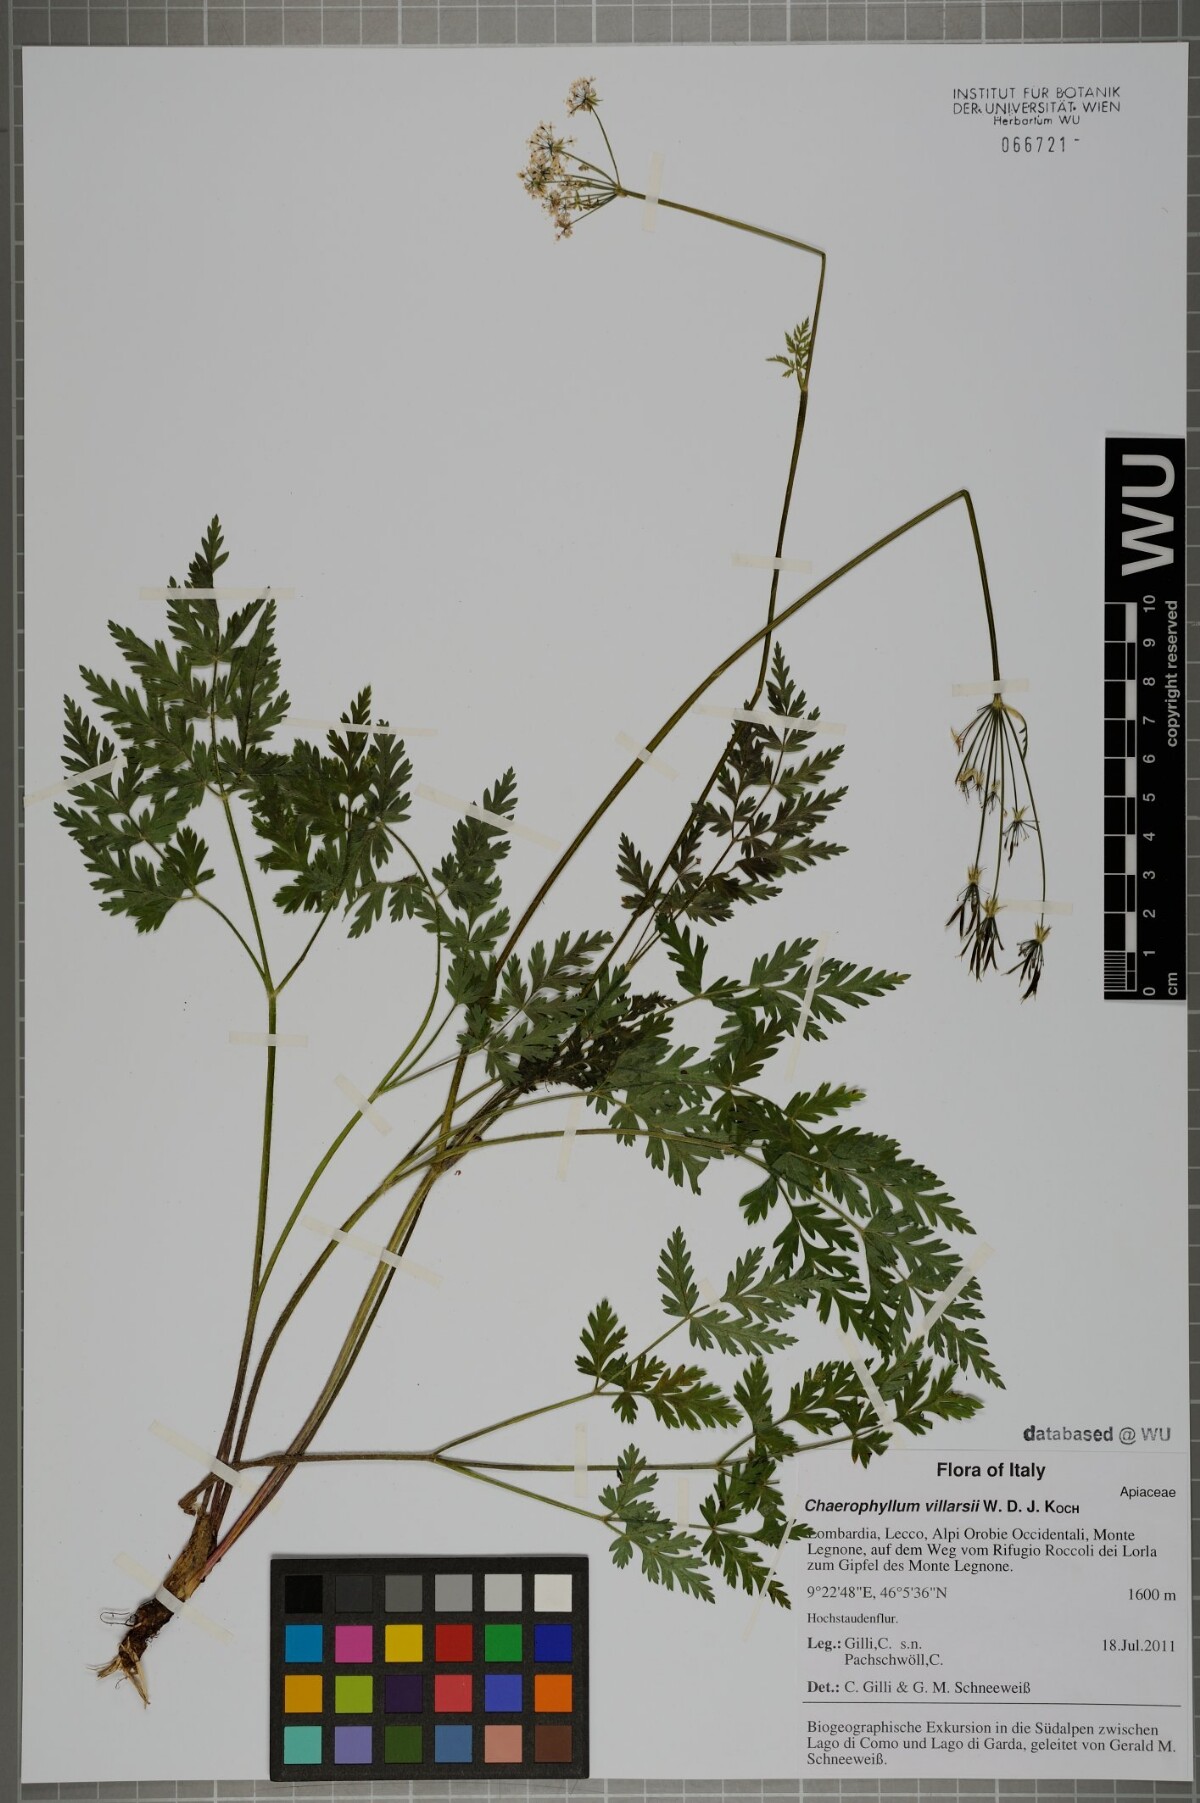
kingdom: Plantae
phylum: Tracheophyta
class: Magnoliopsida
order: Apiales
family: Apiaceae
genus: Chaerophyllum
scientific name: Chaerophyllum villarsii
